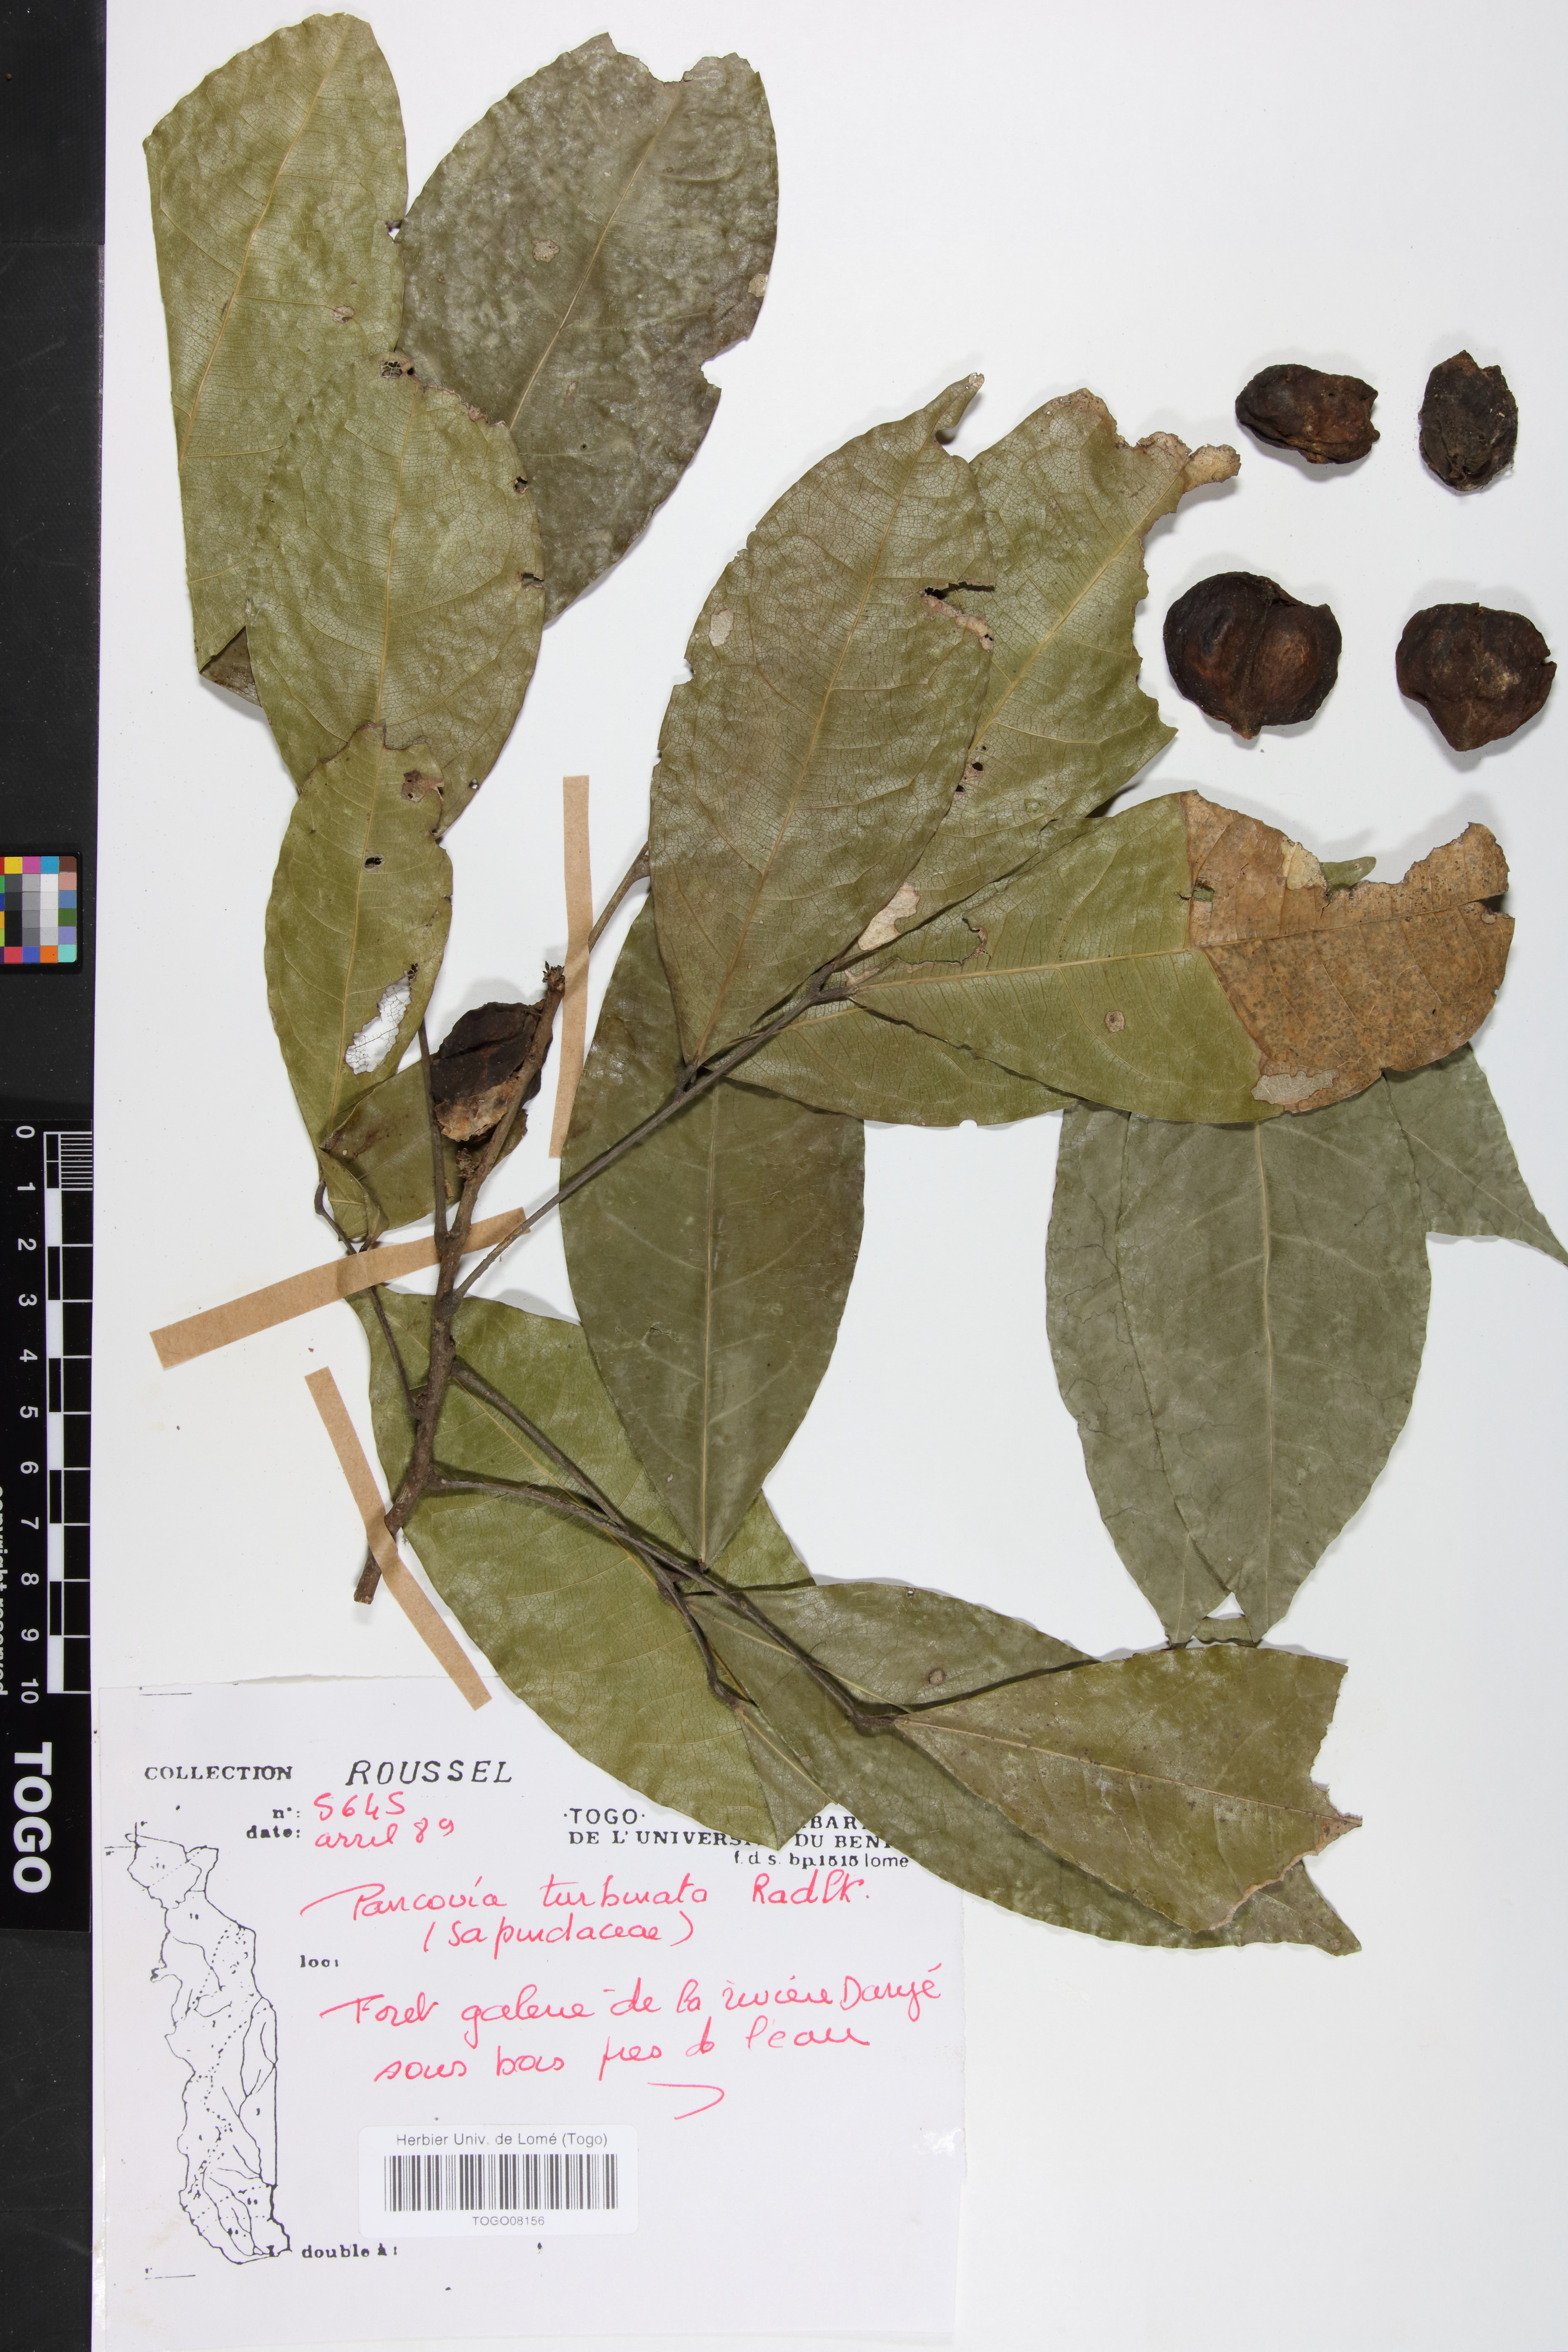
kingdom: Plantae
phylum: Tracheophyta
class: Magnoliopsida
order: Sapindales
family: Sapindaceae
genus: Pancovia
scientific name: Pancovia turbinata
